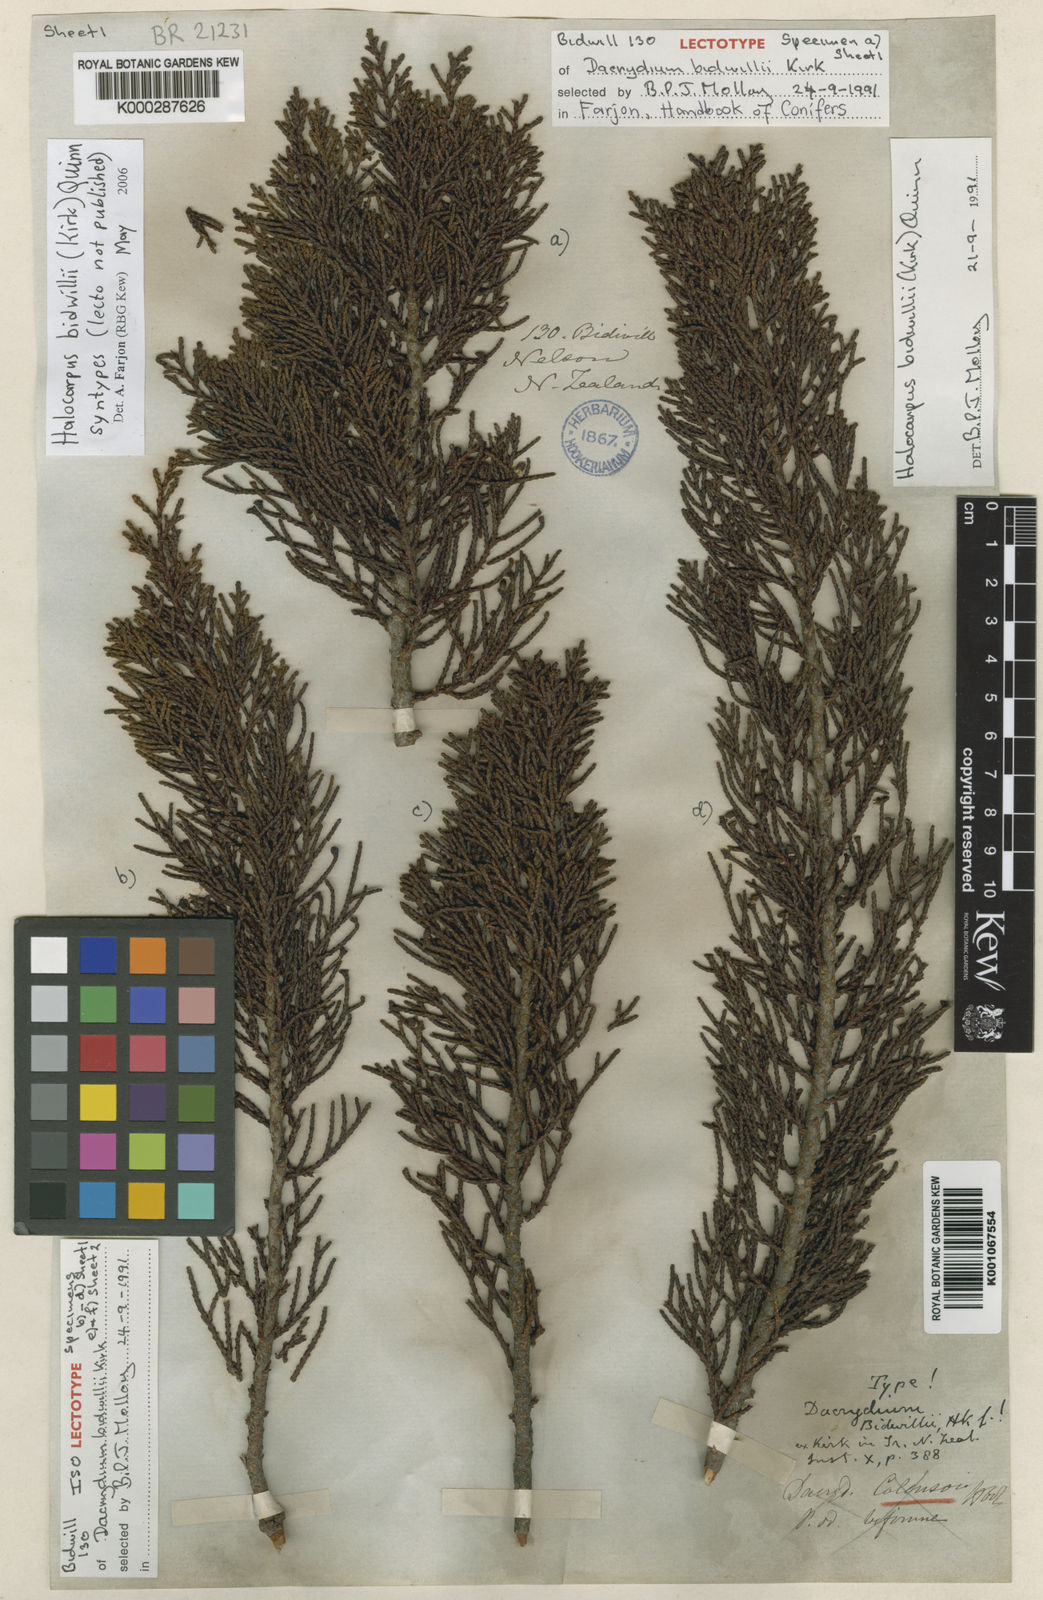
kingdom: Plantae
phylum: Tracheophyta
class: Pinopsida
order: Pinales
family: Podocarpaceae
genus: Halocarpus
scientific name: Halocarpus bidwillii
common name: Bog pine
